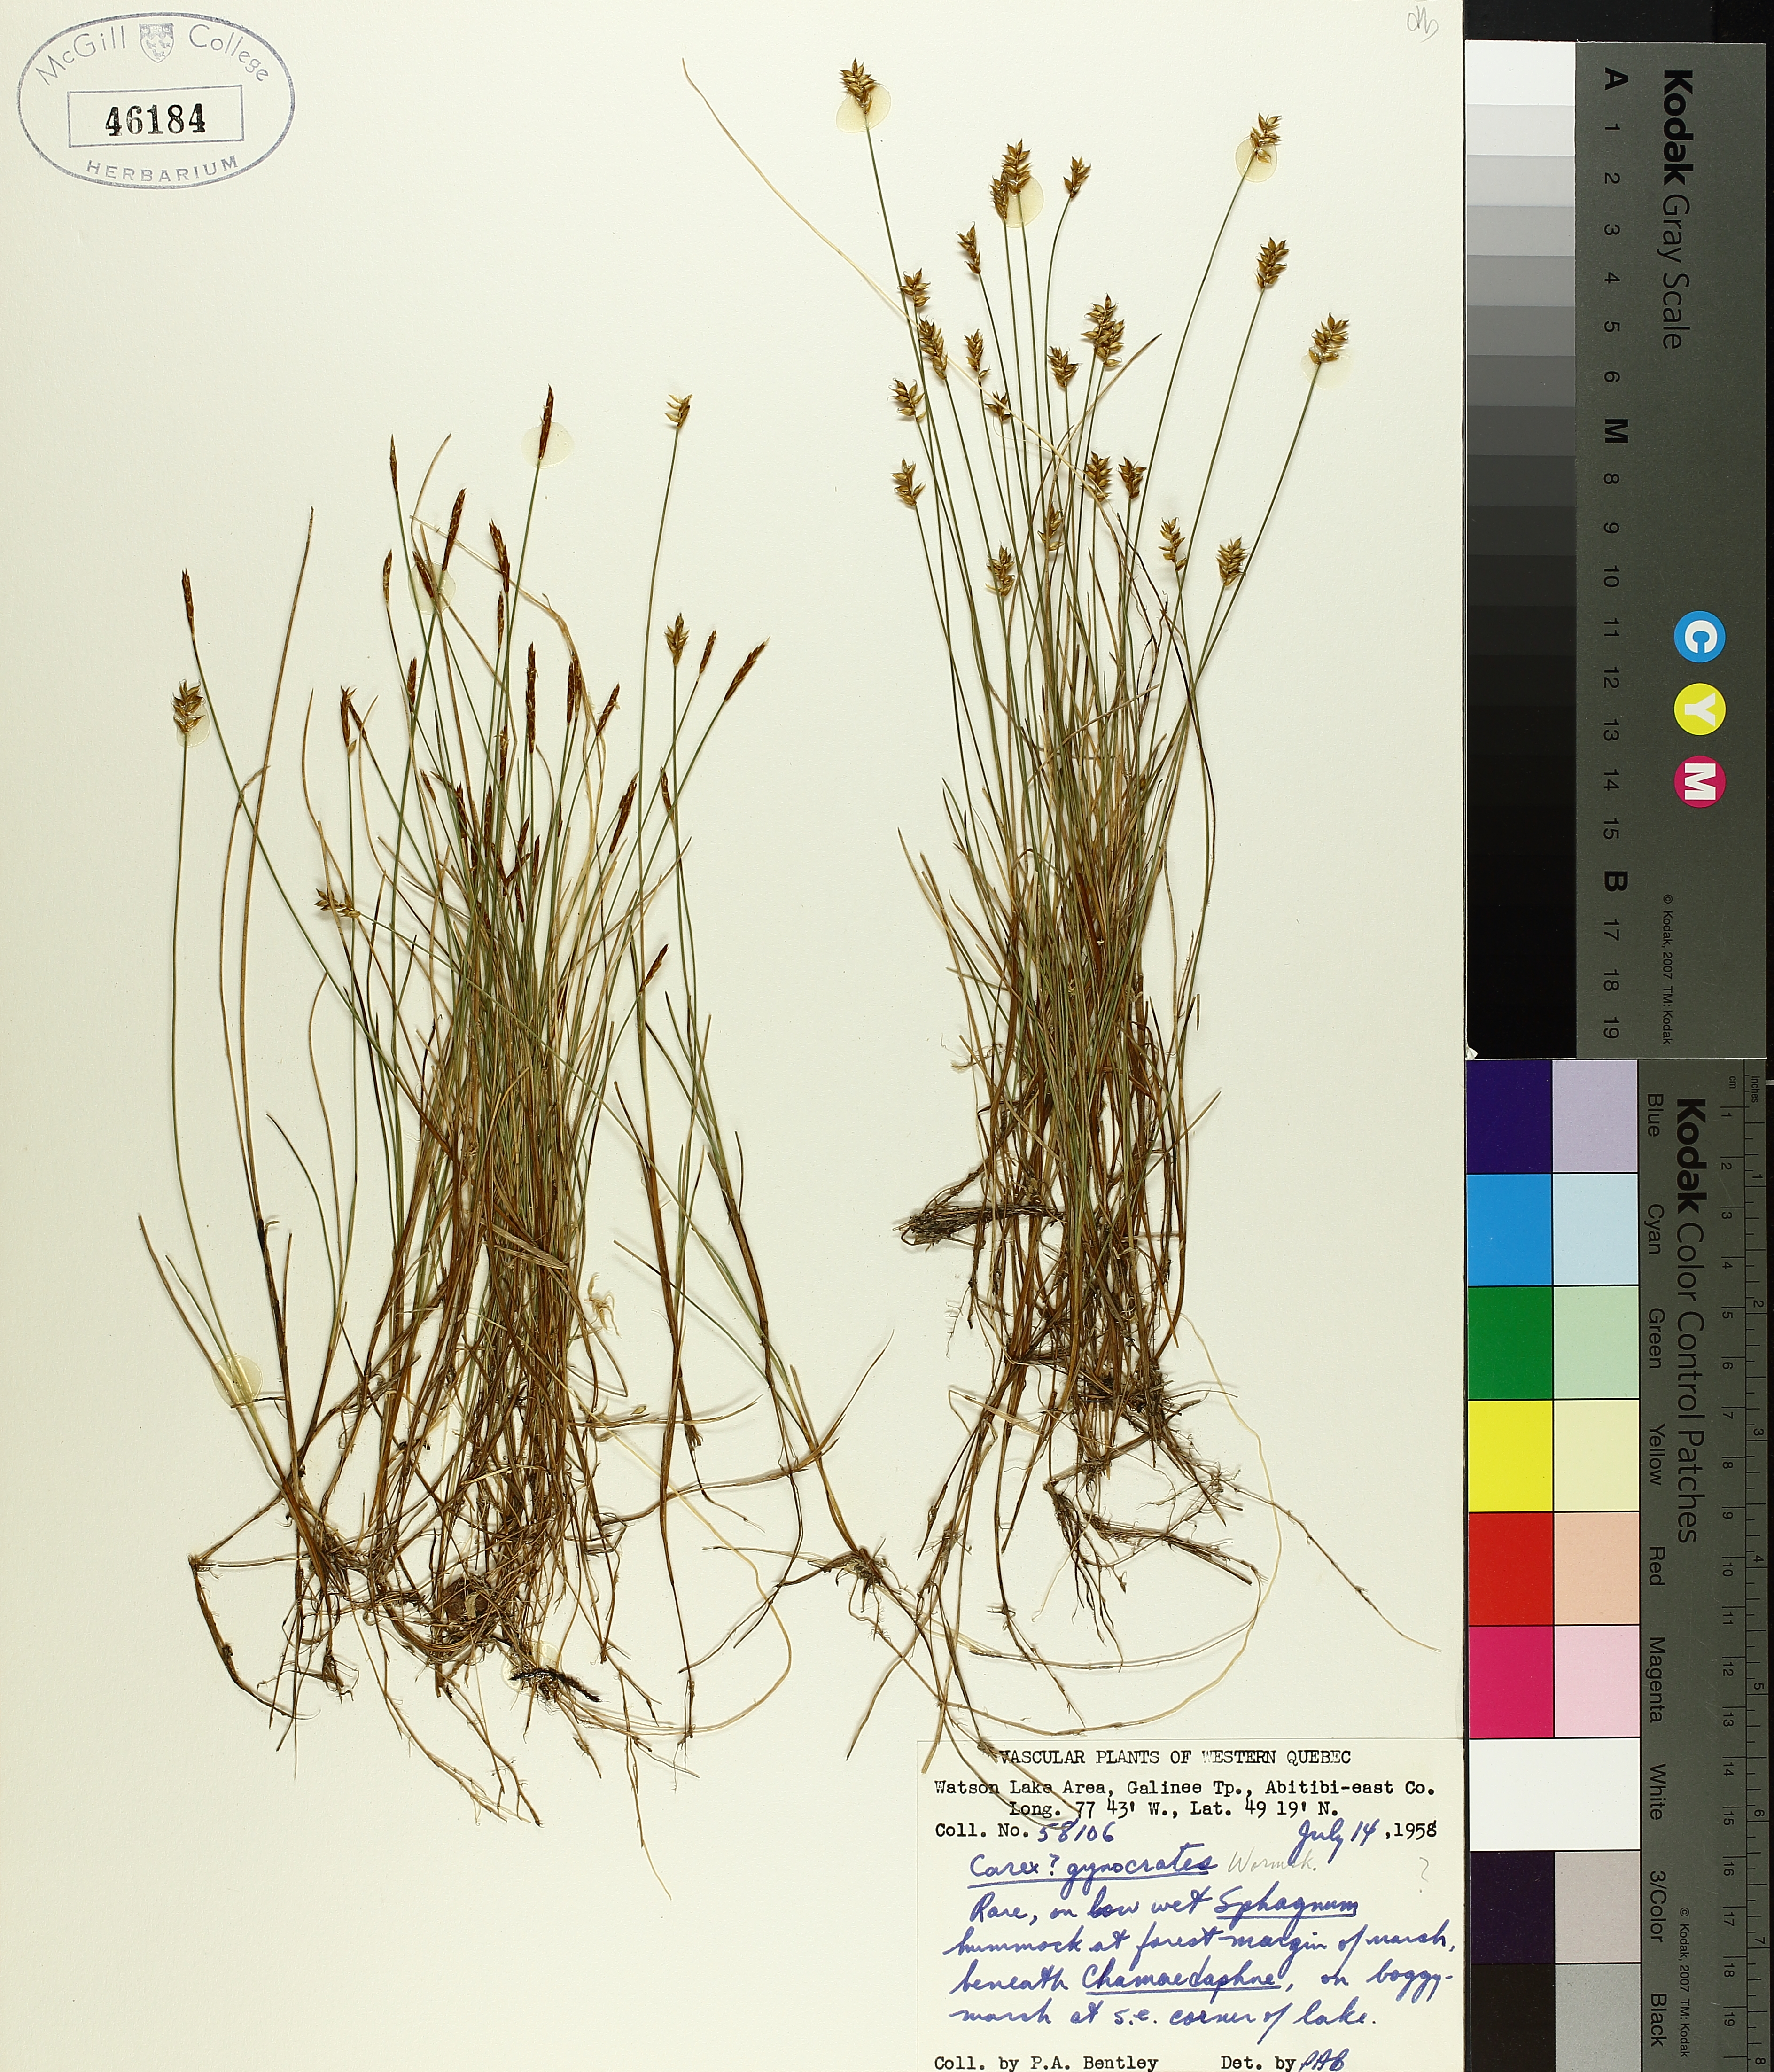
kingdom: Plantae
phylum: Tracheophyta
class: Liliopsida
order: Poales
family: Cyperaceae
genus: Carex
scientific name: Carex gynocrates
